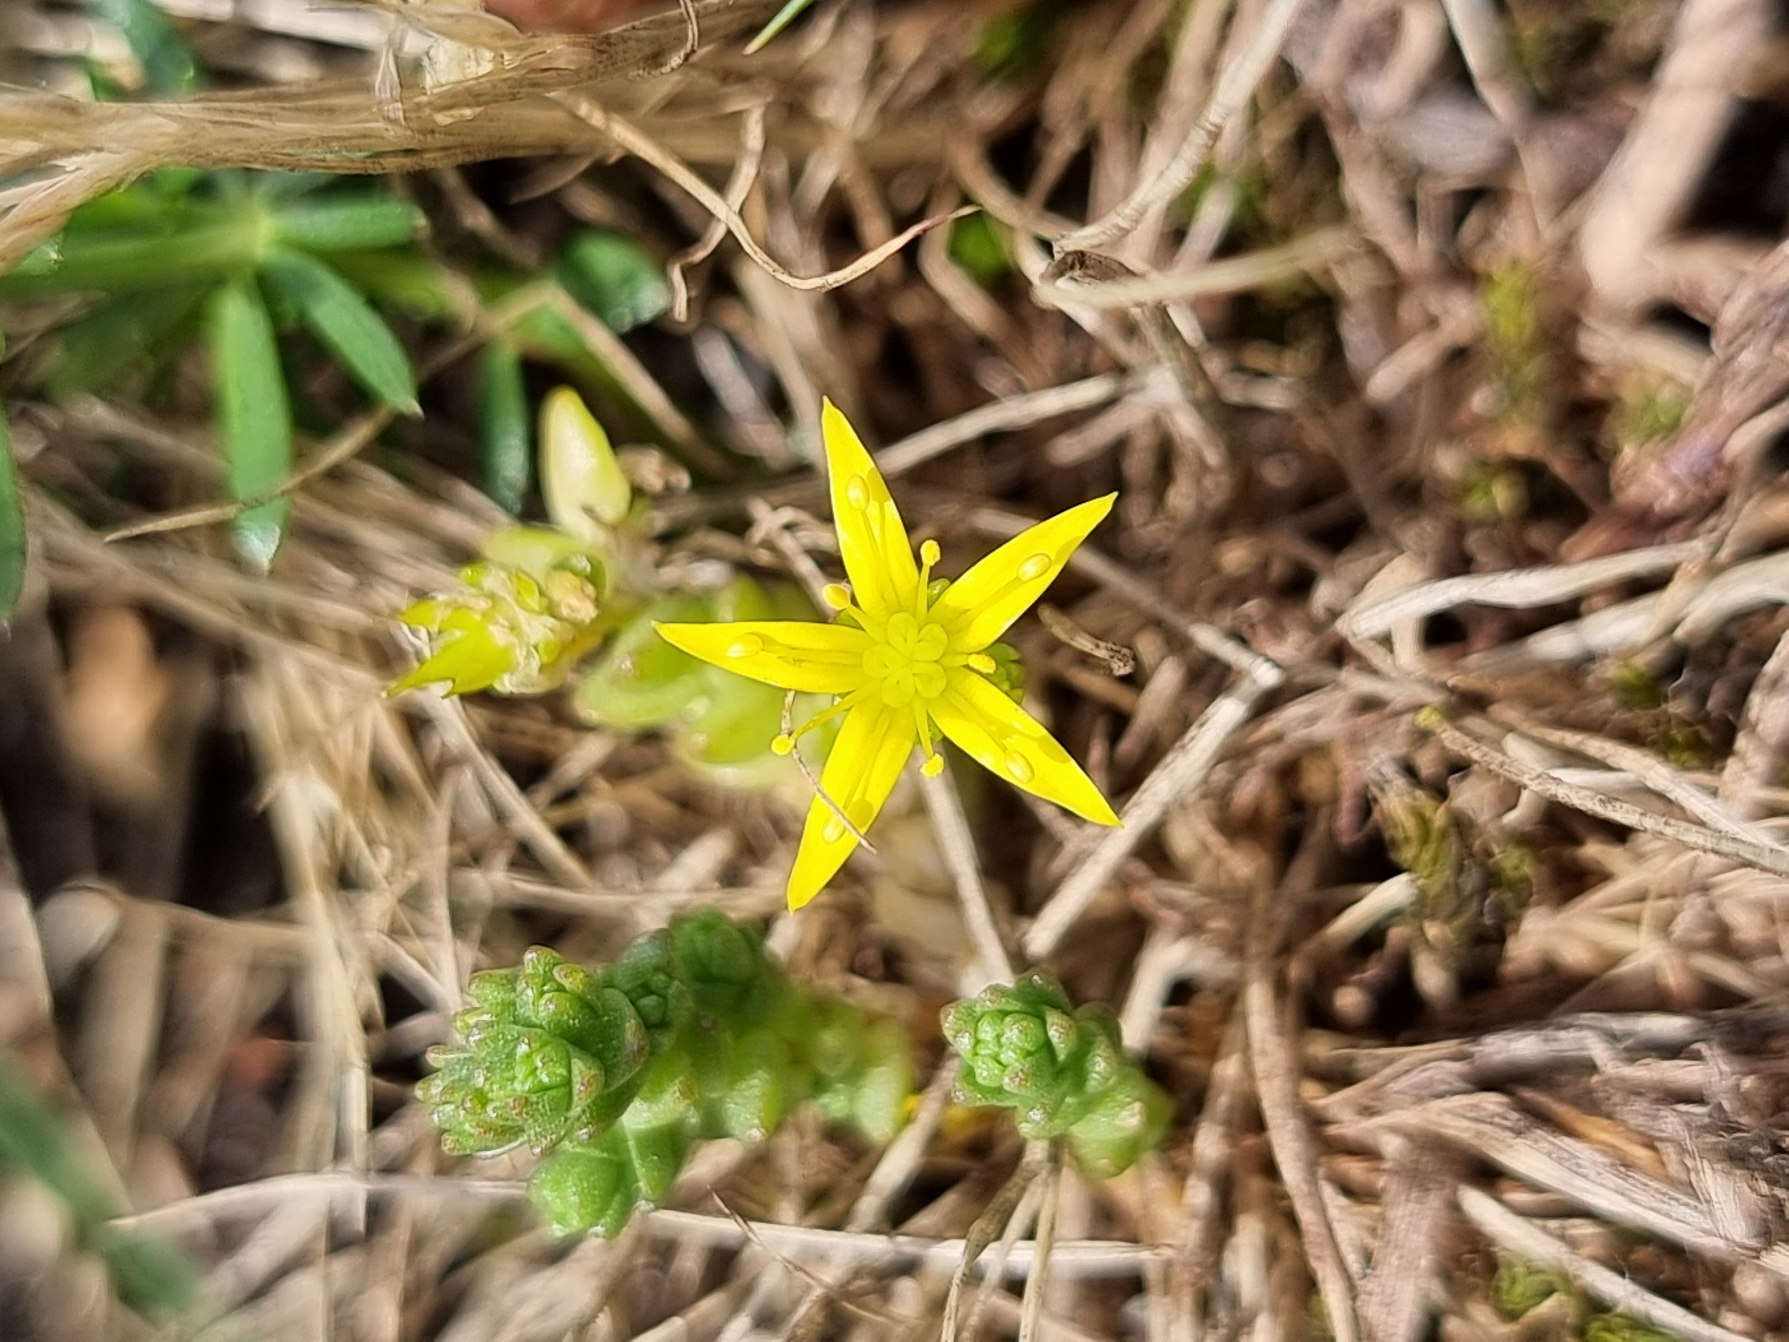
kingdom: Plantae
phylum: Tracheophyta
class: Magnoliopsida
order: Saxifragales
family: Crassulaceae
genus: Sedum
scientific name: Sedum acre
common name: Bidende stenurt
